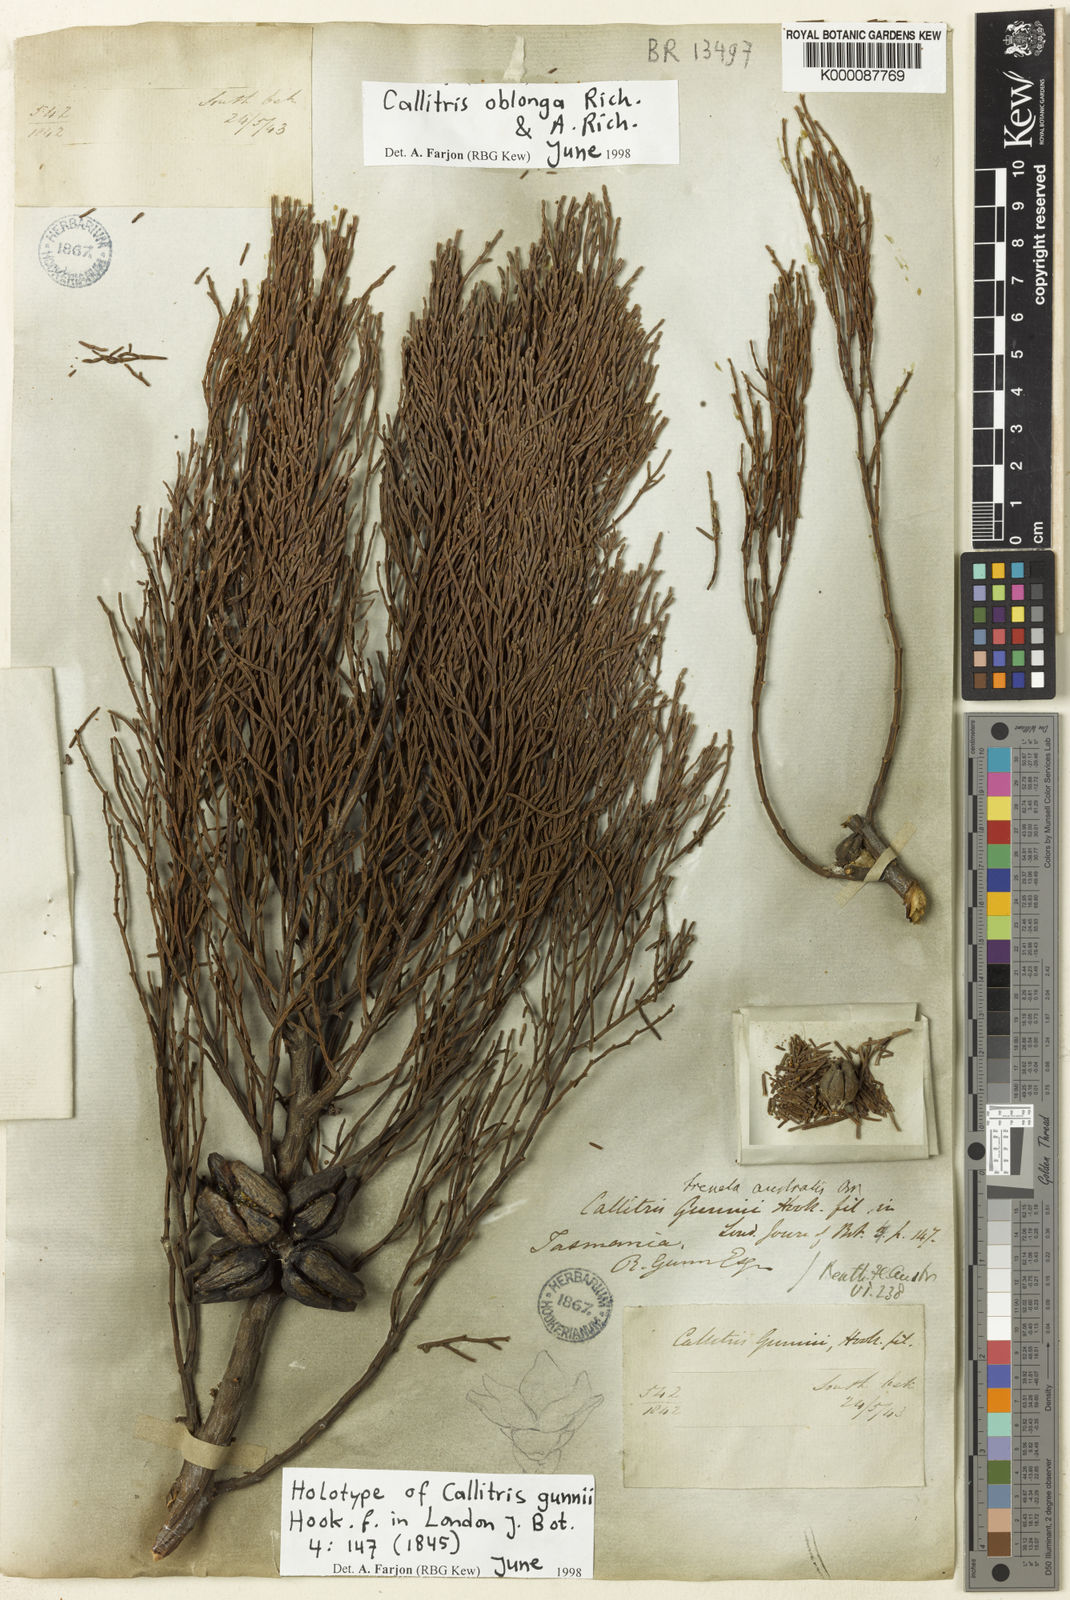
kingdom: Plantae
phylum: Tracheophyta
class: Pinopsida
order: Pinales
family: Cupressaceae
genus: Callitris
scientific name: Callitris oblonga
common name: Dwarf cypress-pine
